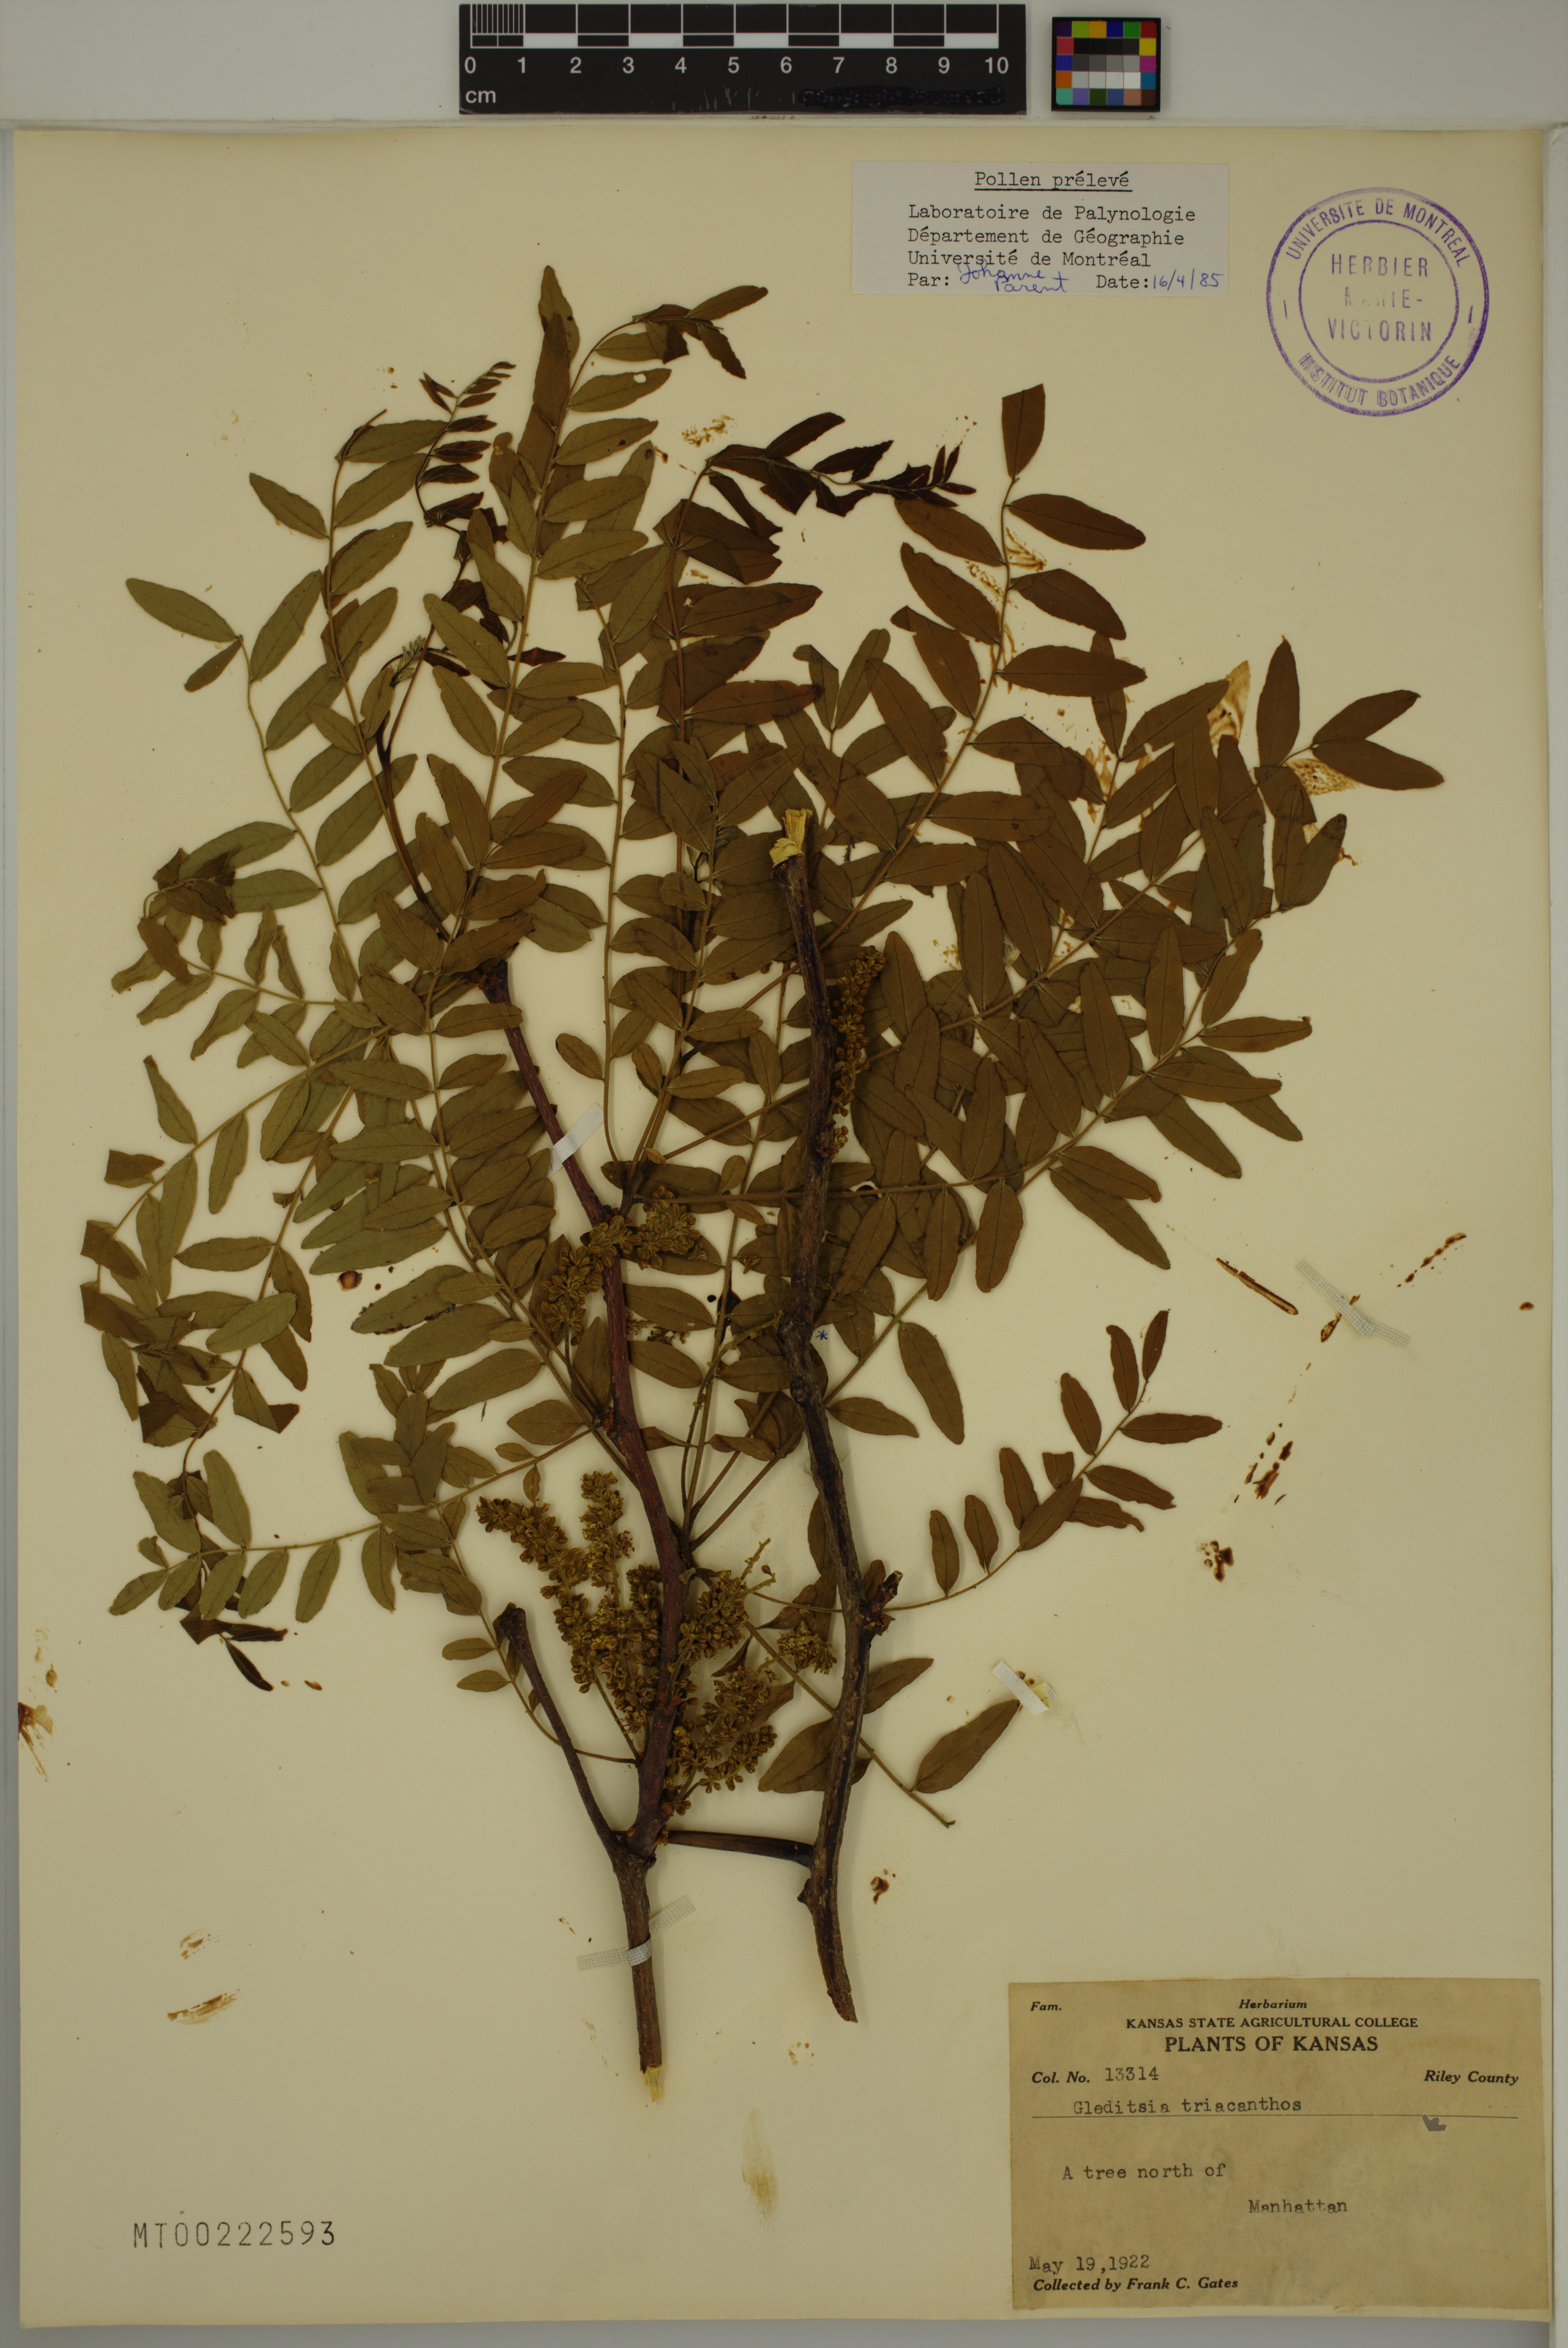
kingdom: Plantae
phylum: Tracheophyta
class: Magnoliopsida
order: Fabales
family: Fabaceae
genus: Gleditsia
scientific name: Gleditsia triacanthos
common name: Common honeylocust
